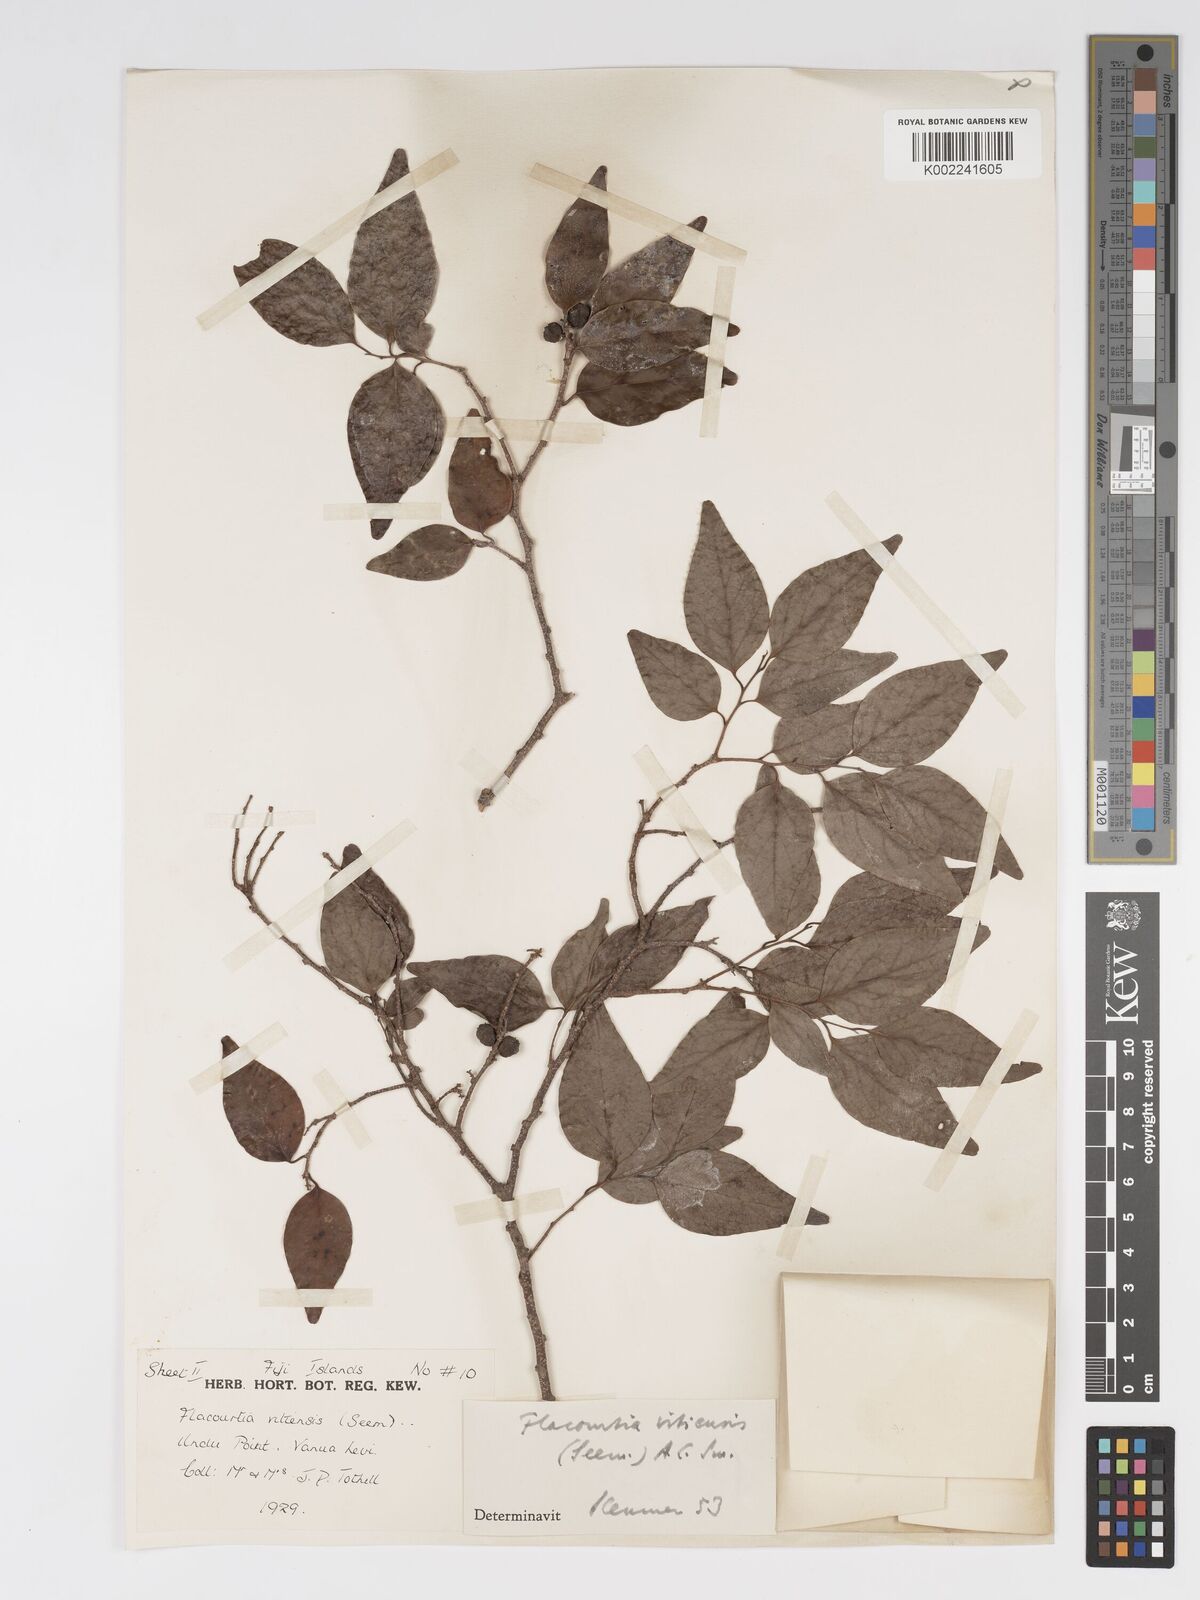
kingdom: Plantae
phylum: Tracheophyta
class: Magnoliopsida
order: Malpighiales
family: Salicaceae
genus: Flacourtia
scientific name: Flacourtia vitiensis
